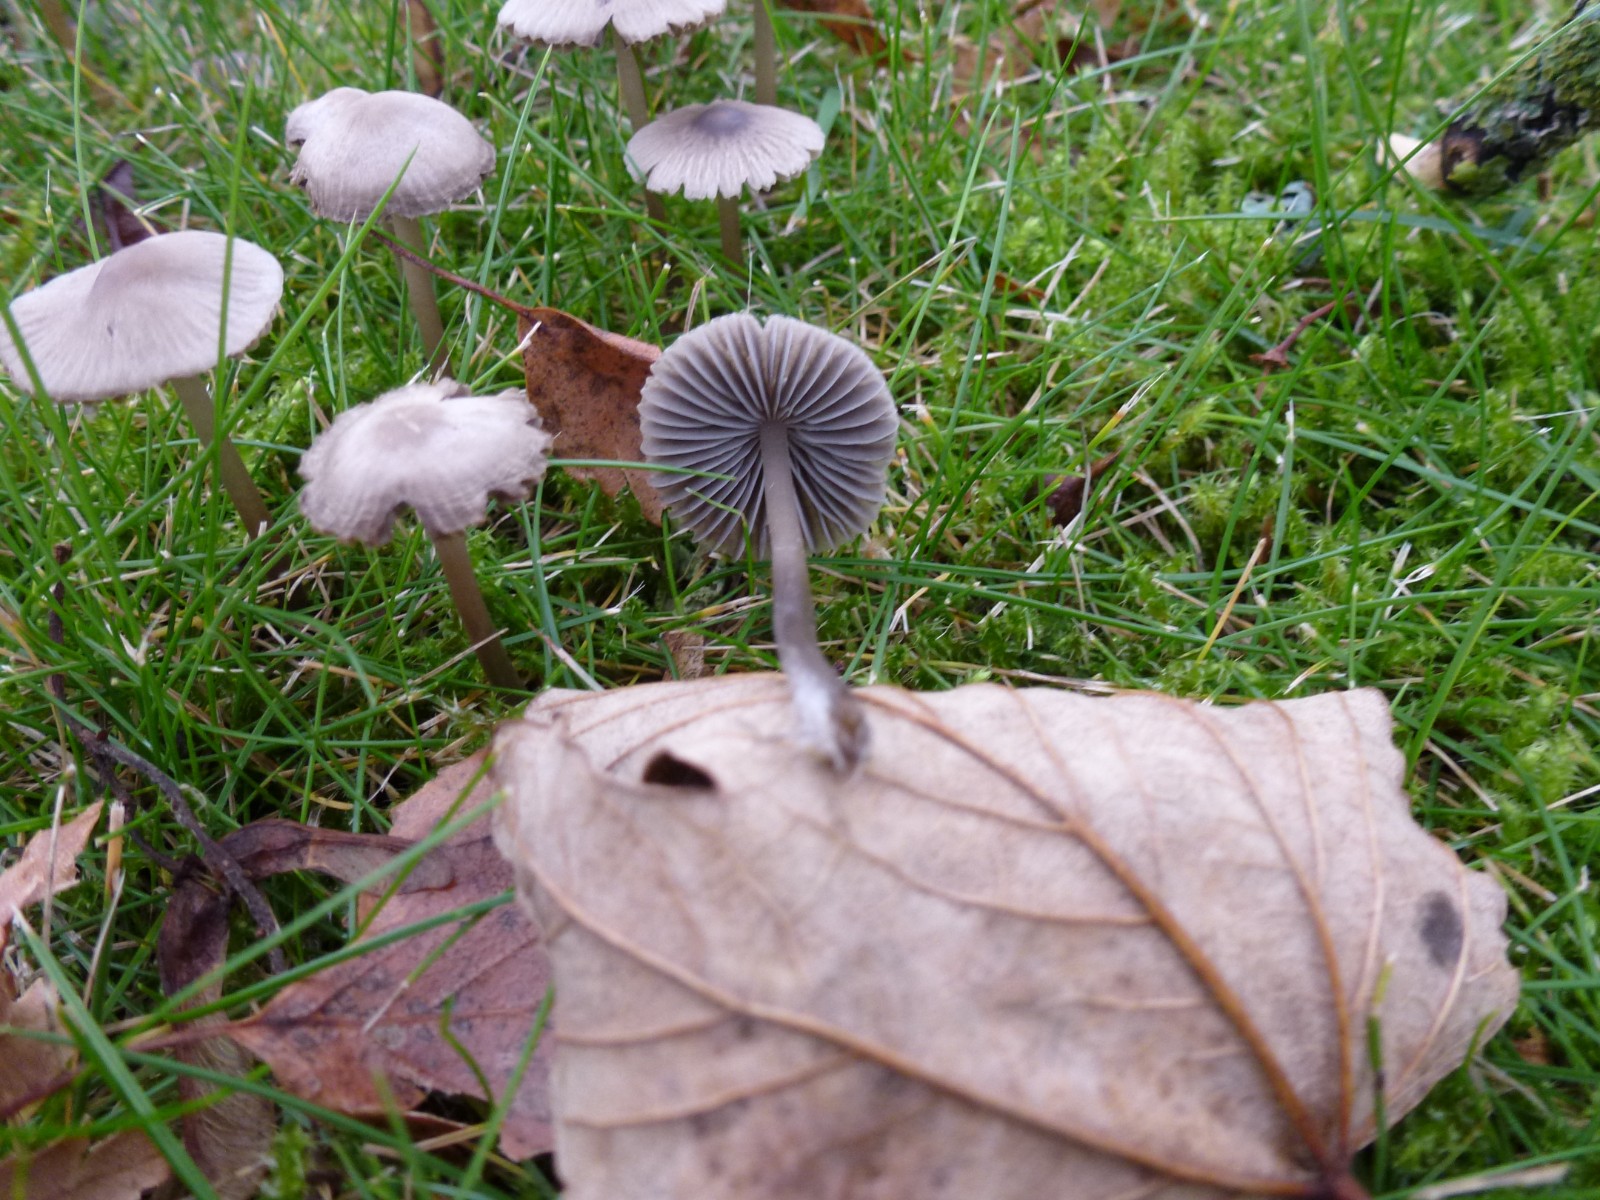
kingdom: Fungi
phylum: Basidiomycota
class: Agaricomycetes
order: Agaricales
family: Mycenaceae
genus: Mycena
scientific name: Mycena aetites
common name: plæne-huesvamp
